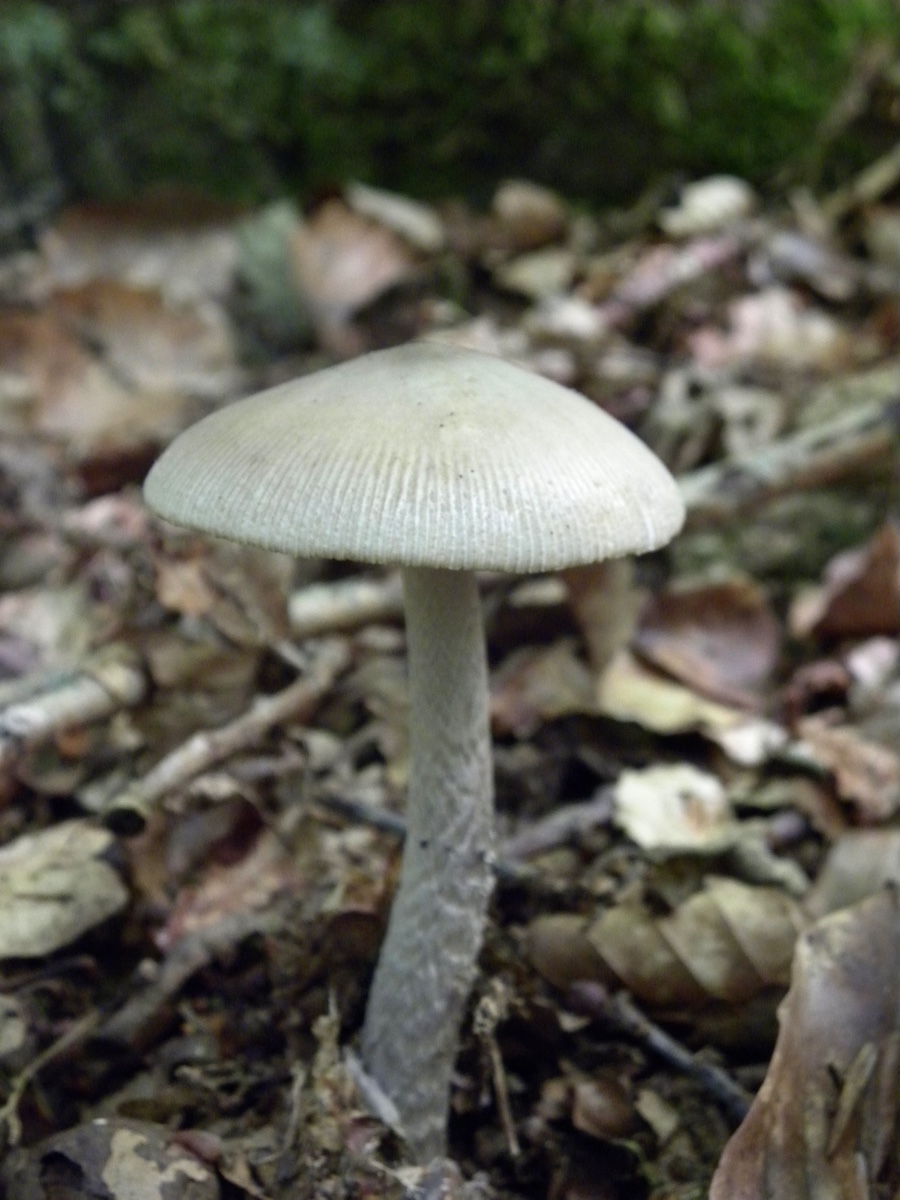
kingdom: Fungi
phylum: Basidiomycota
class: Agaricomycetes
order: Agaricales
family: Amanitaceae
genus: Amanita
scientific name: Amanita
